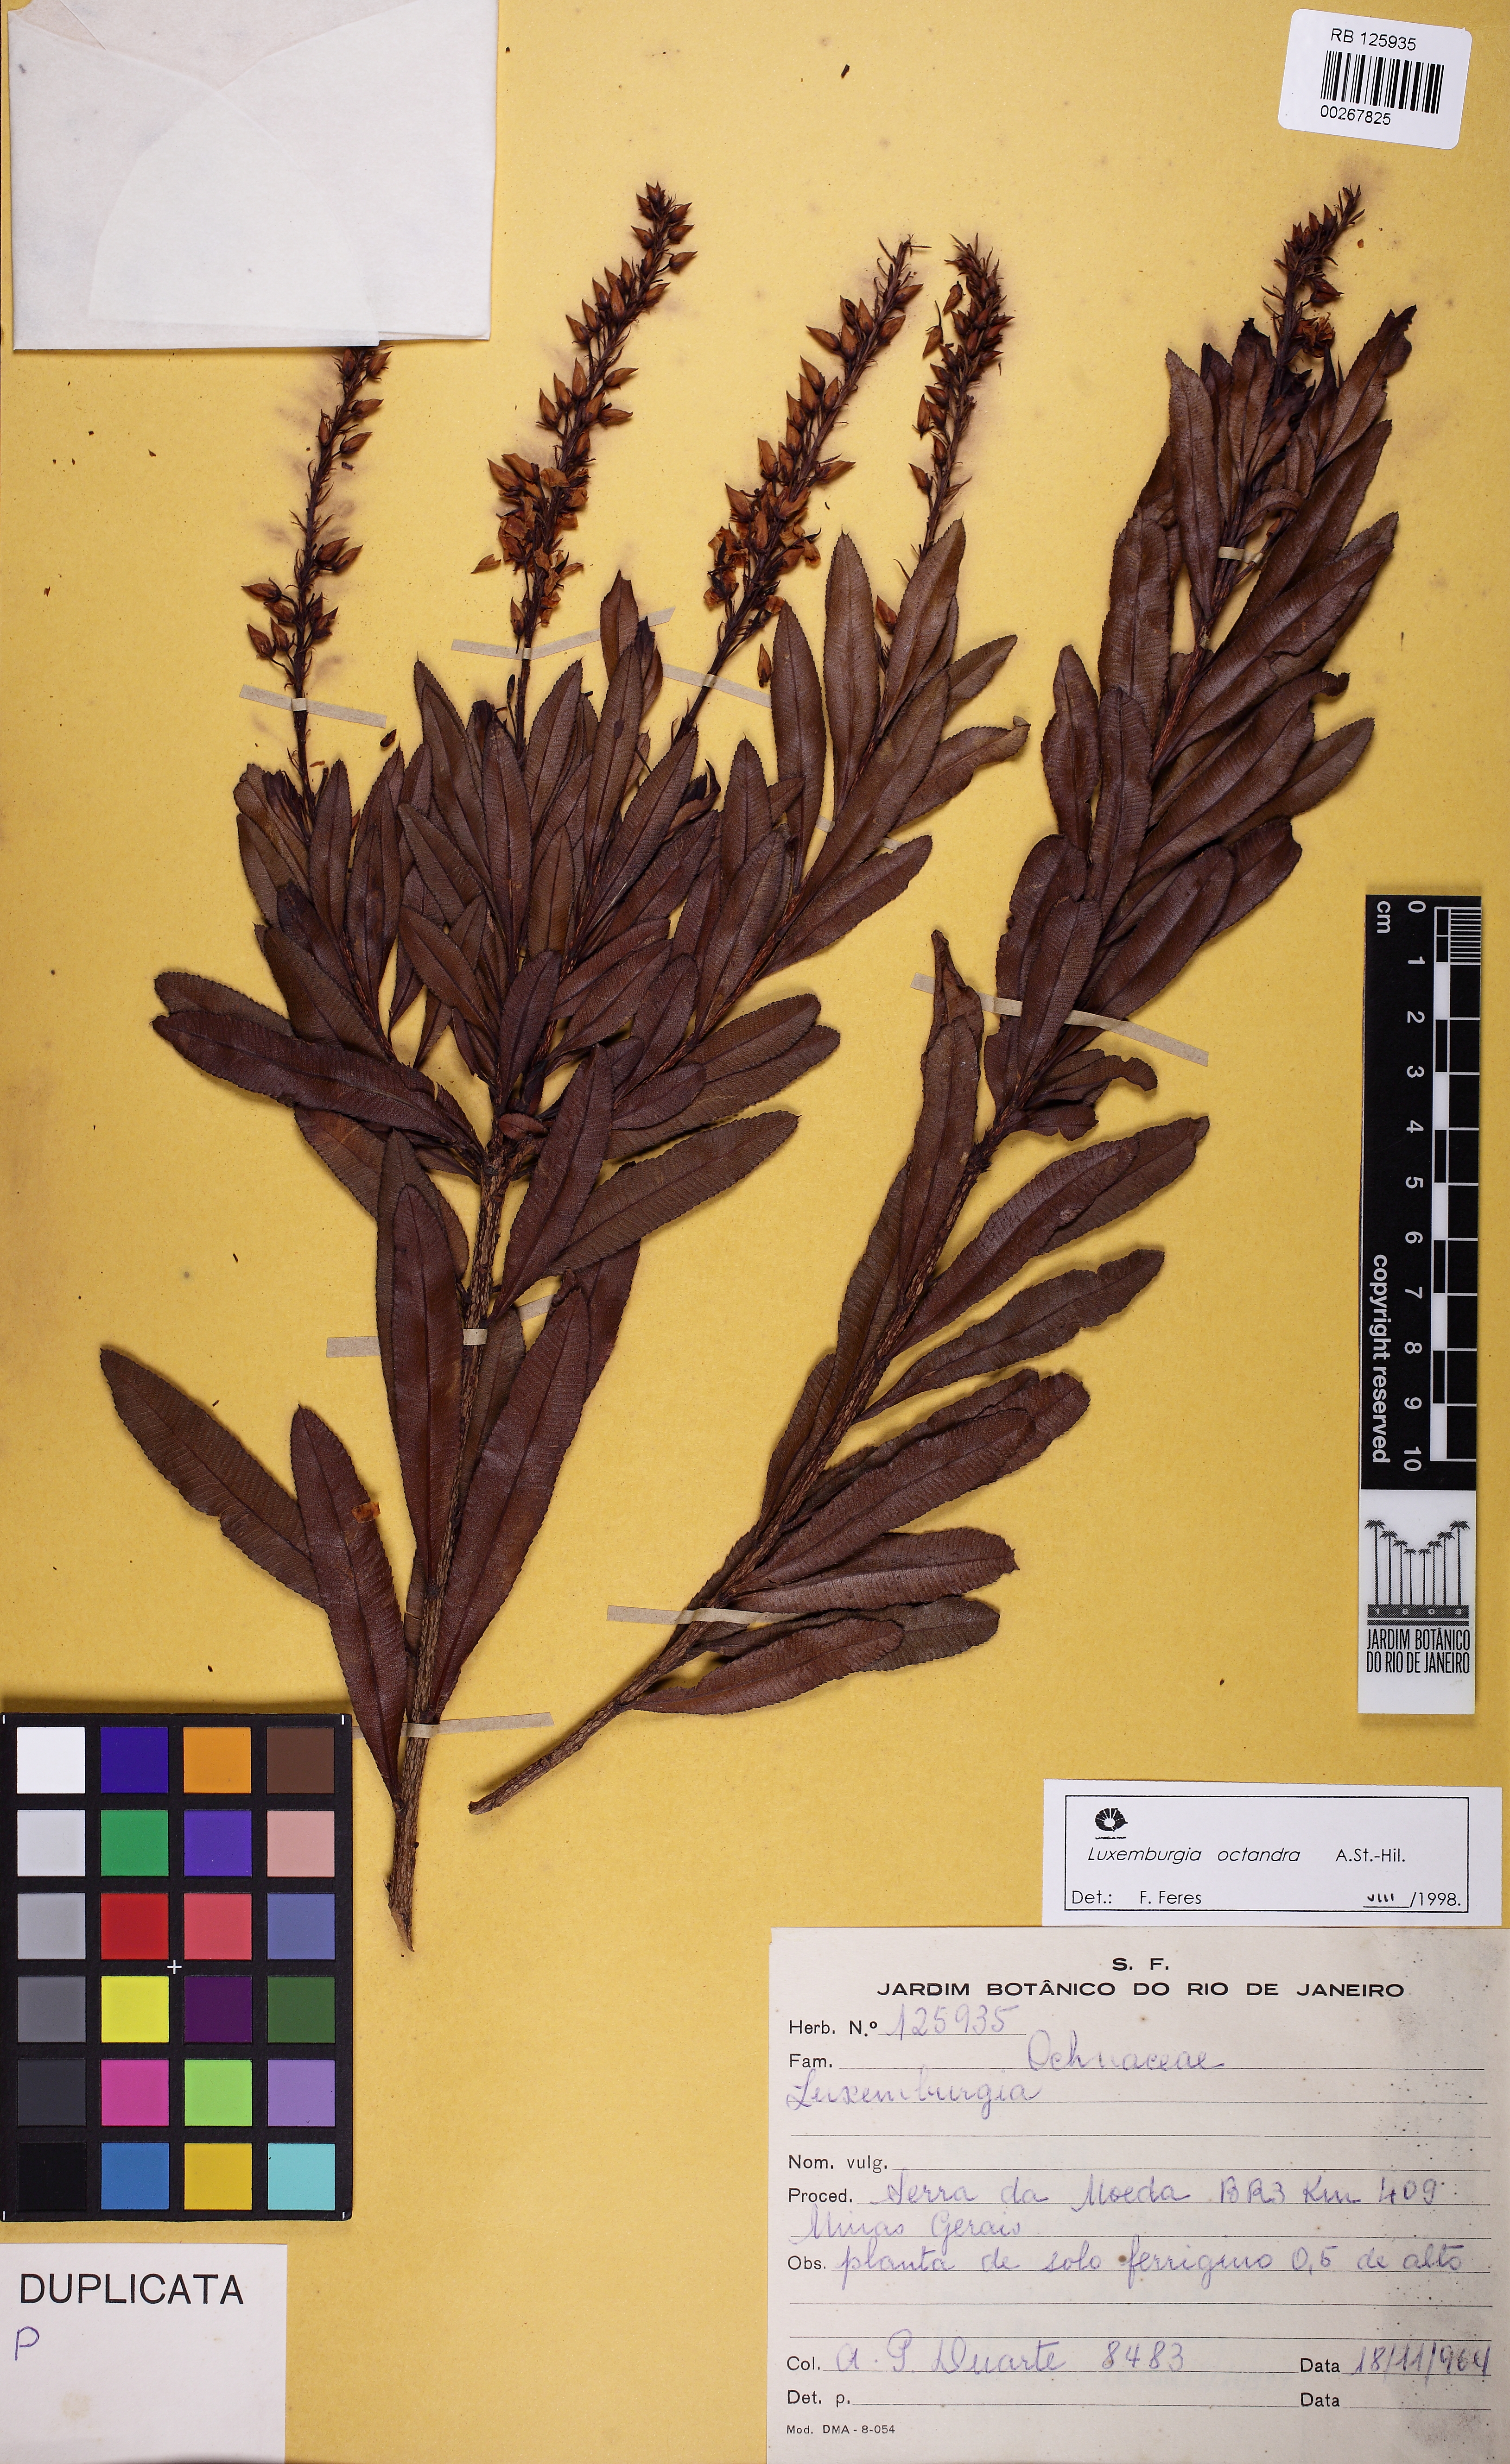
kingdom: Plantae
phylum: Tracheophyta
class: Magnoliopsida
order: Malpighiales
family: Ochnaceae
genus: Luxemburgia
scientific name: Luxemburgia octandra
